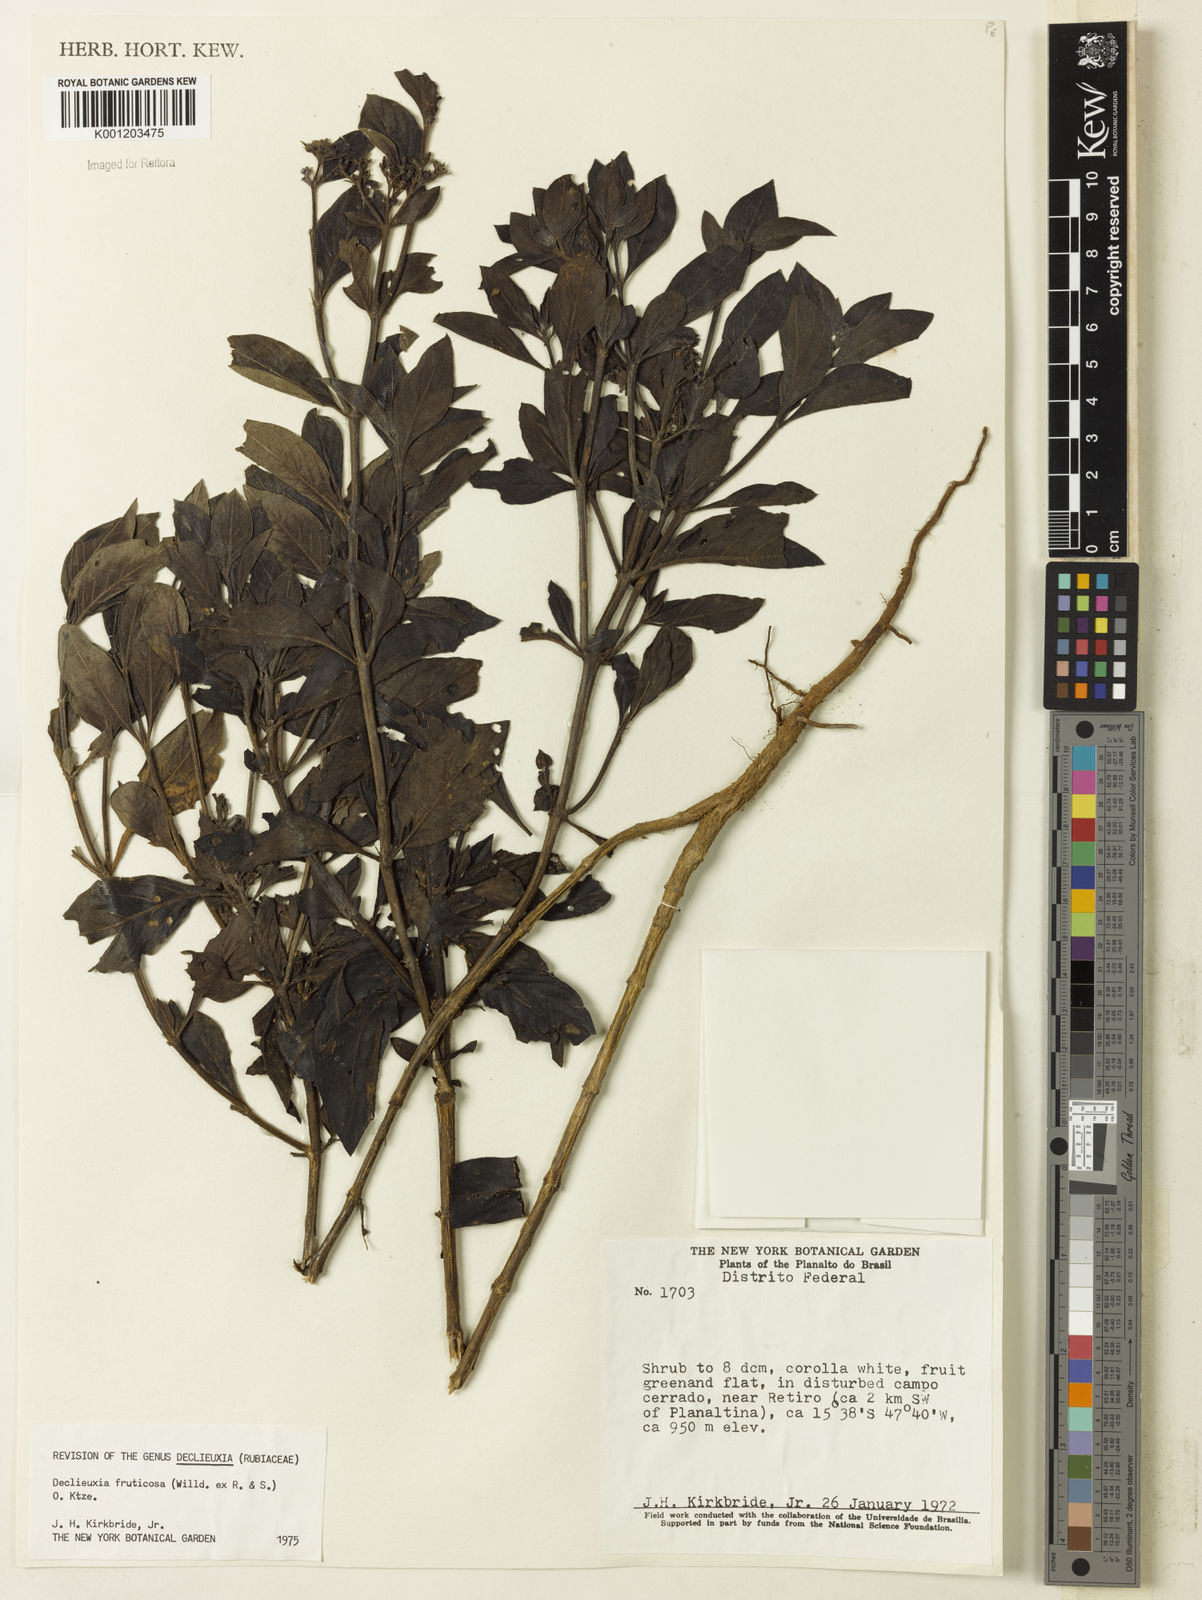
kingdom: Plantae
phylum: Tracheophyta
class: Magnoliopsida
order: Gentianales
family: Rubiaceae
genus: Declieuxia
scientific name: Declieuxia fruticosa
